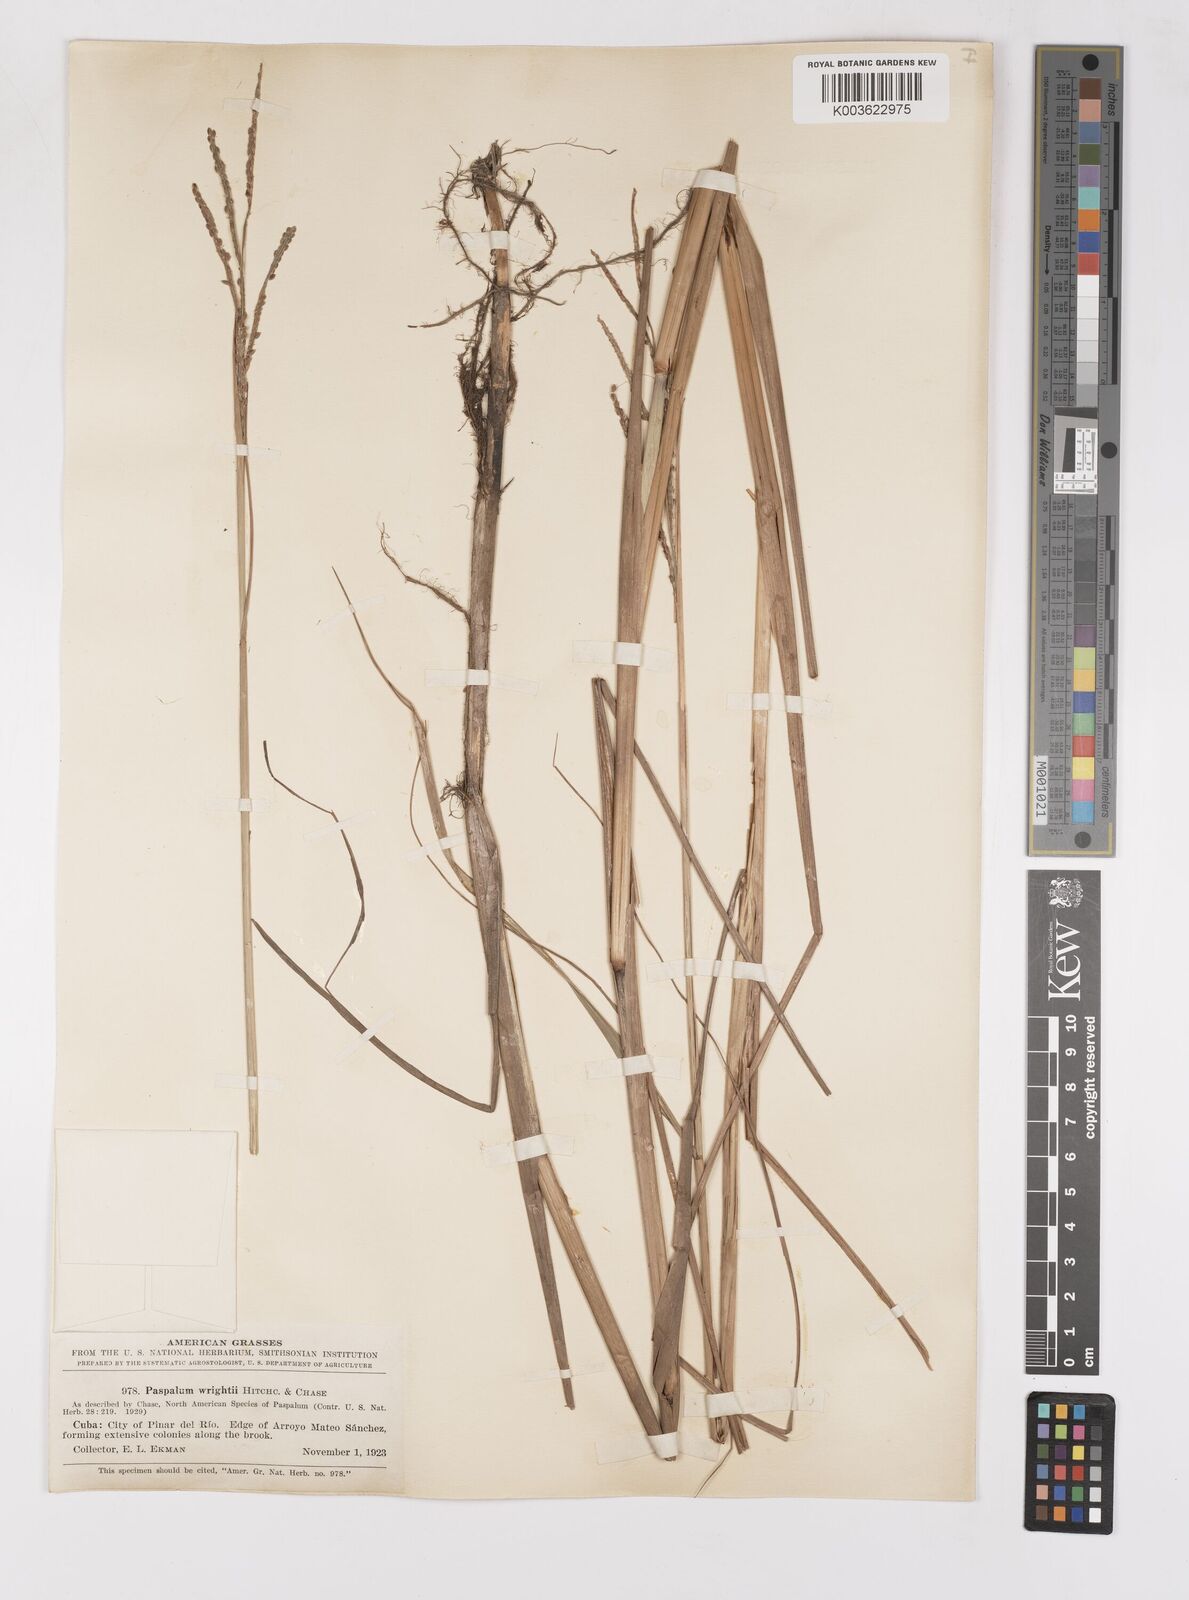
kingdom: Plantae
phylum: Tracheophyta
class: Liliopsida
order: Poales
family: Poaceae
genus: Paspalum
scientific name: Paspalum wrightii
